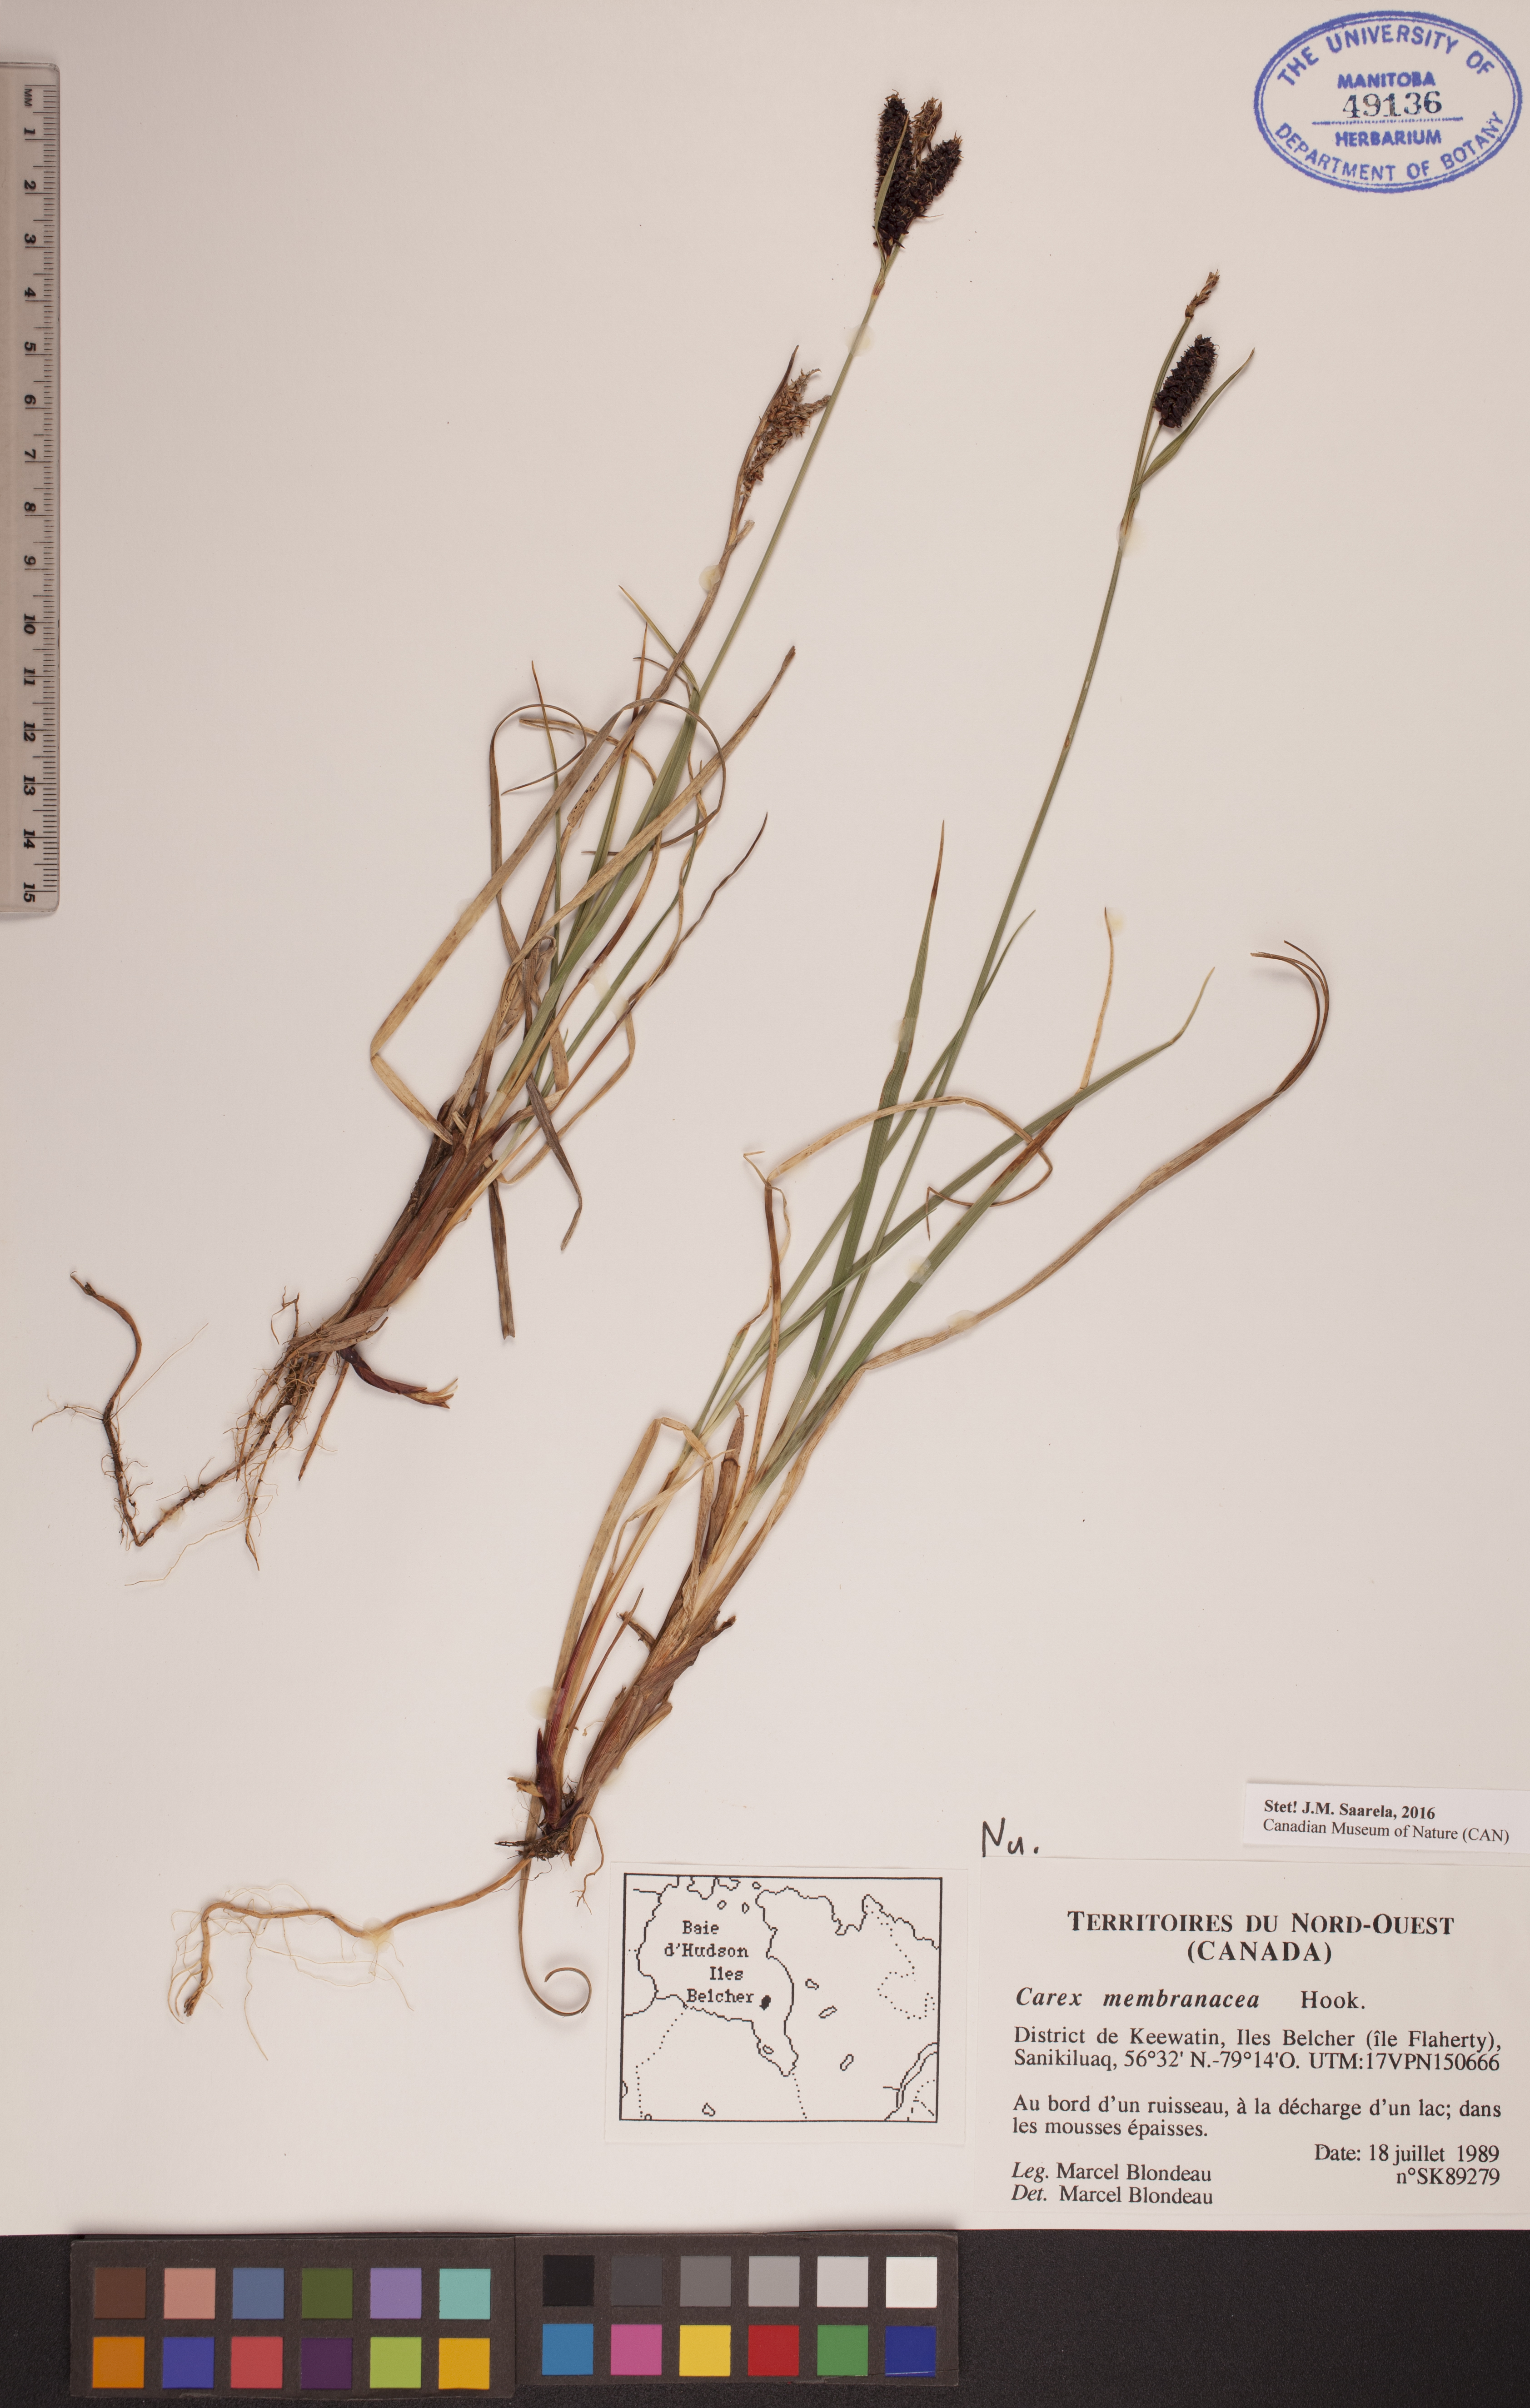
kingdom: Plantae
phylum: Tracheophyta
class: Liliopsida
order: Poales
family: Cyperaceae
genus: Carex
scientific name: Carex membranacea
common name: Fragile sedge
